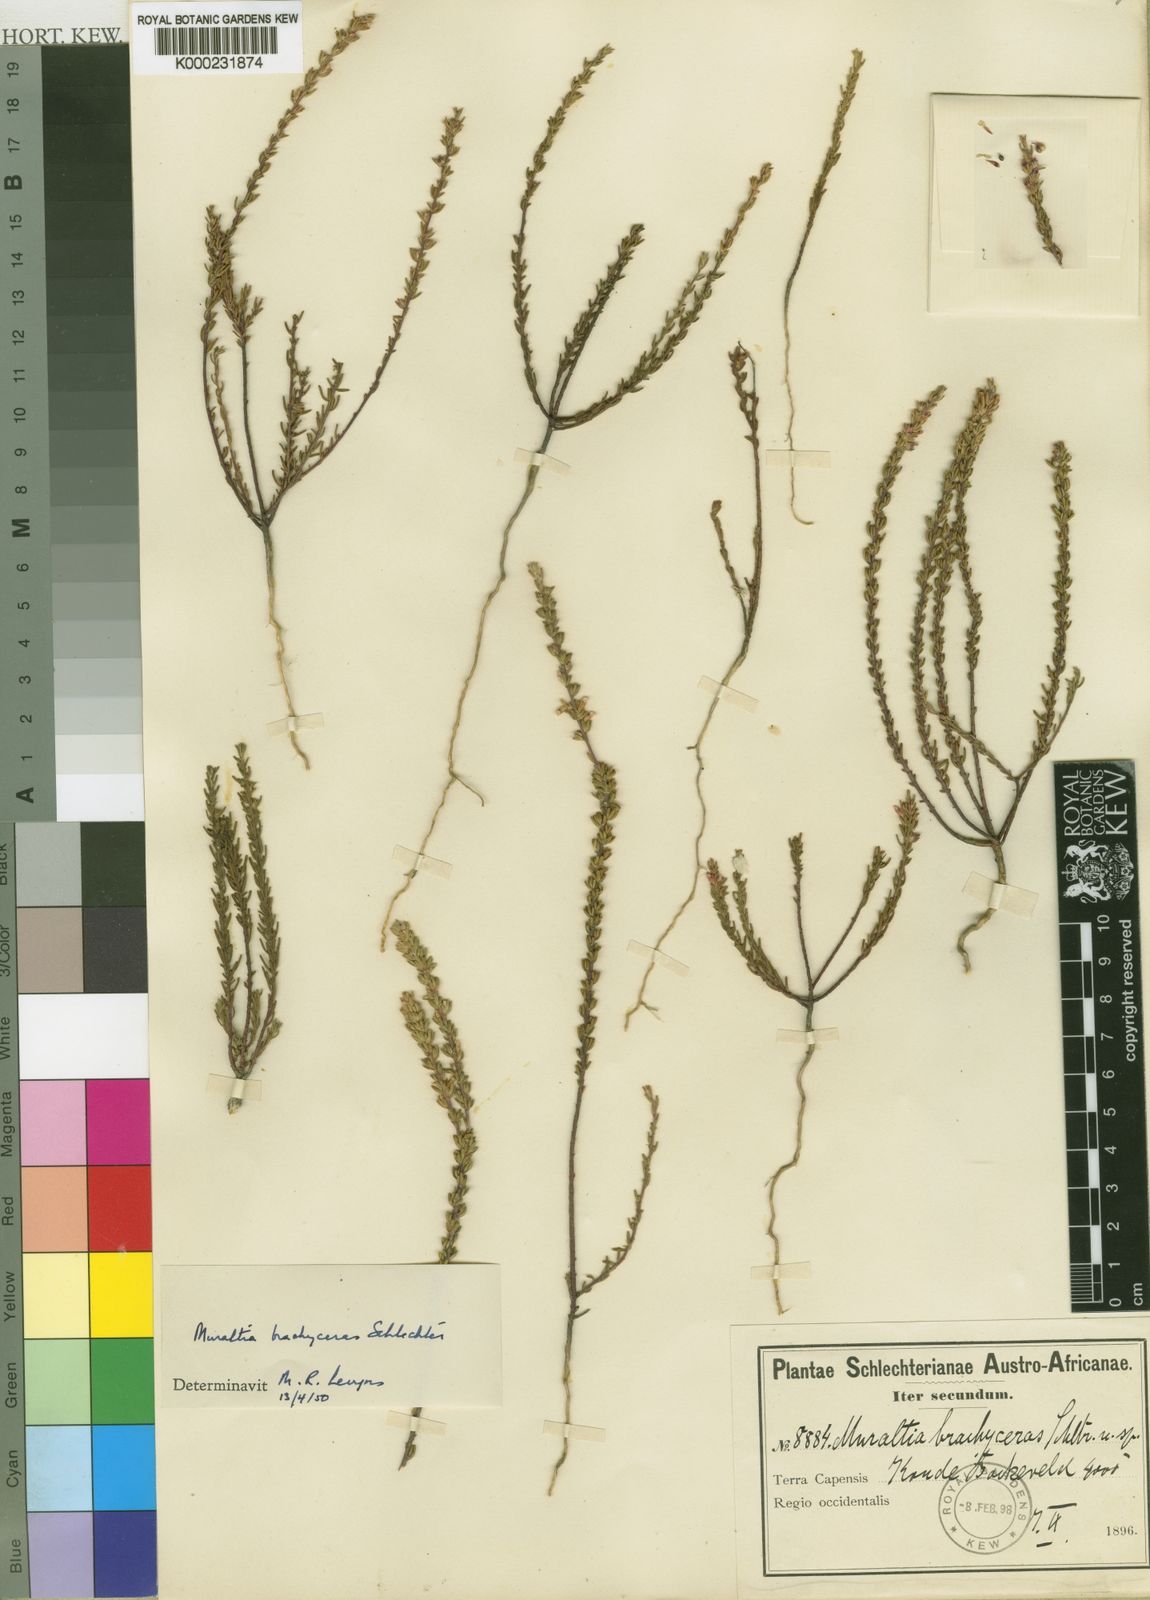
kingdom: Plantae
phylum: Tracheophyta
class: Magnoliopsida
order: Fabales
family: Polygalaceae
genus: Muraltia
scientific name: Muraltia brachyceras
